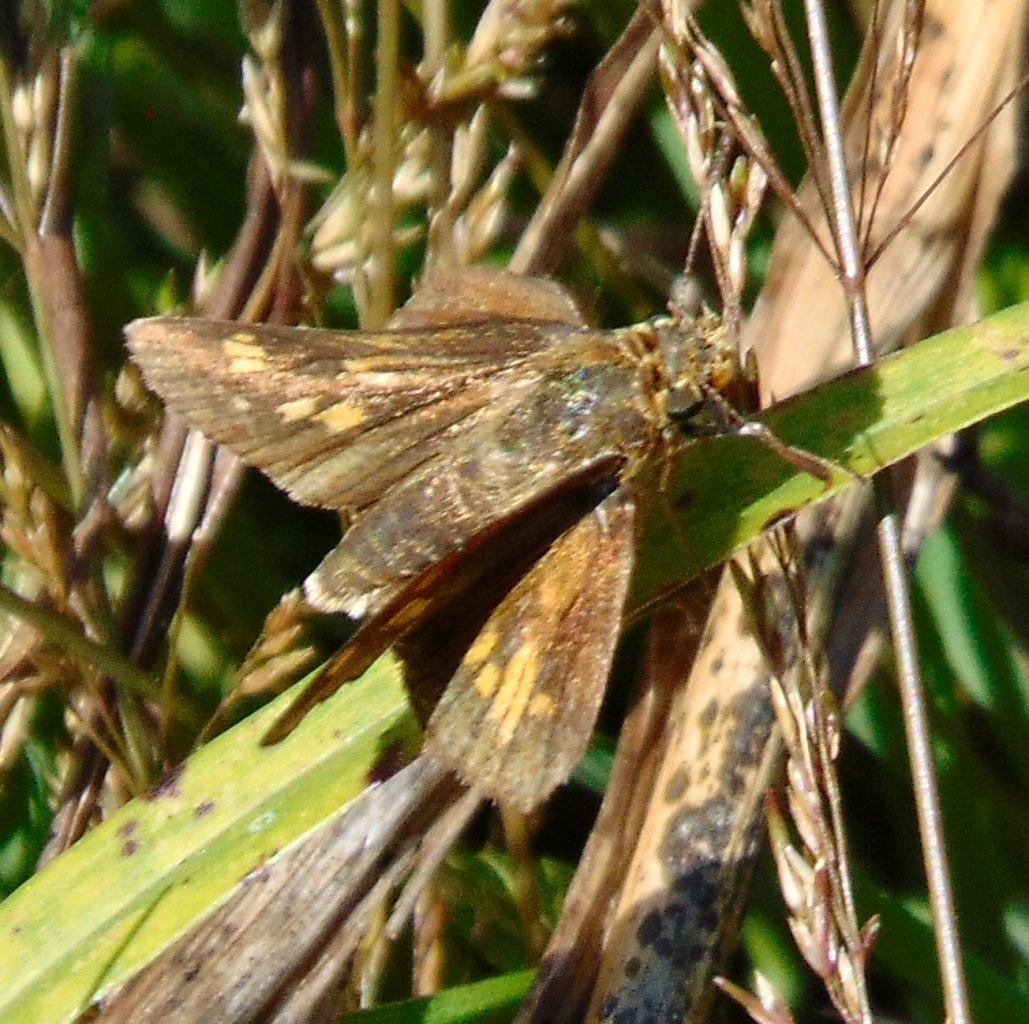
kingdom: Animalia
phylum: Arthropoda
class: Insecta
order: Lepidoptera
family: Hesperiidae
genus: Polites
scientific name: Polites coras
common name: Peck's Skipper
